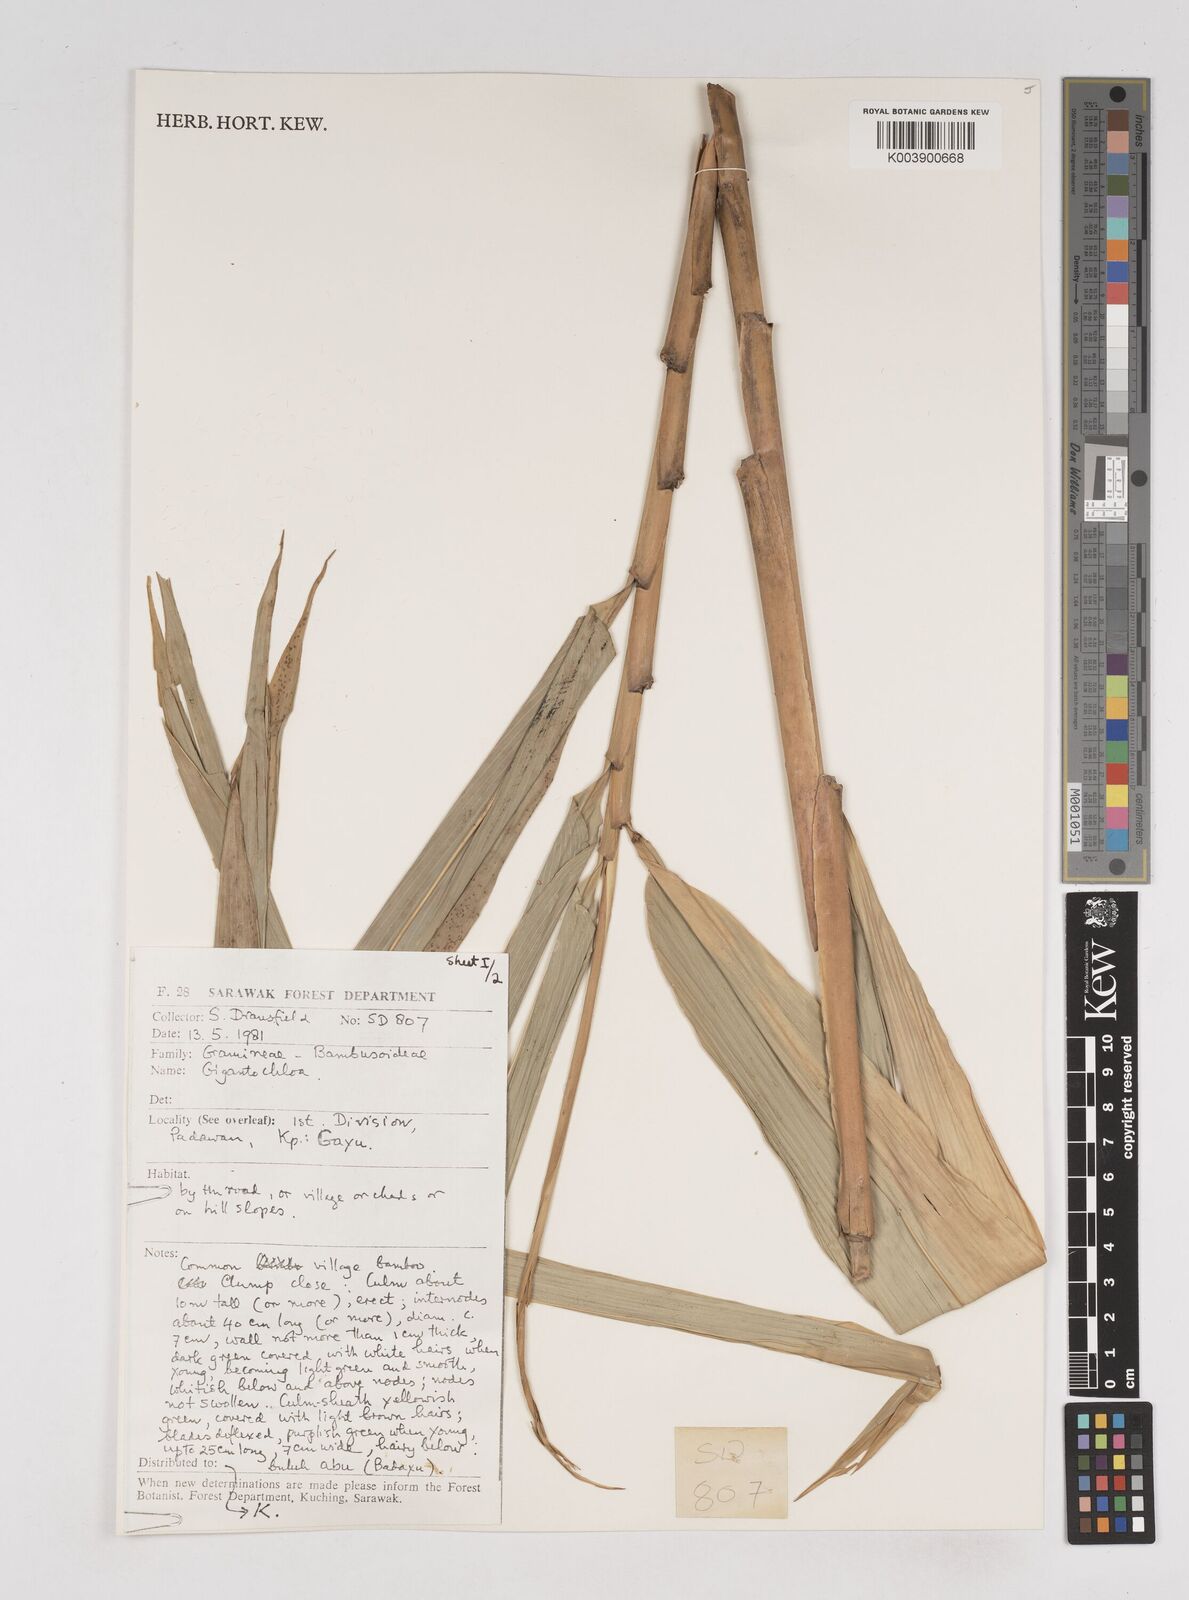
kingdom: Plantae
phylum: Tracheophyta
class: Liliopsida
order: Poales
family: Poaceae
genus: Gigantochloa
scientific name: Gigantochloa
